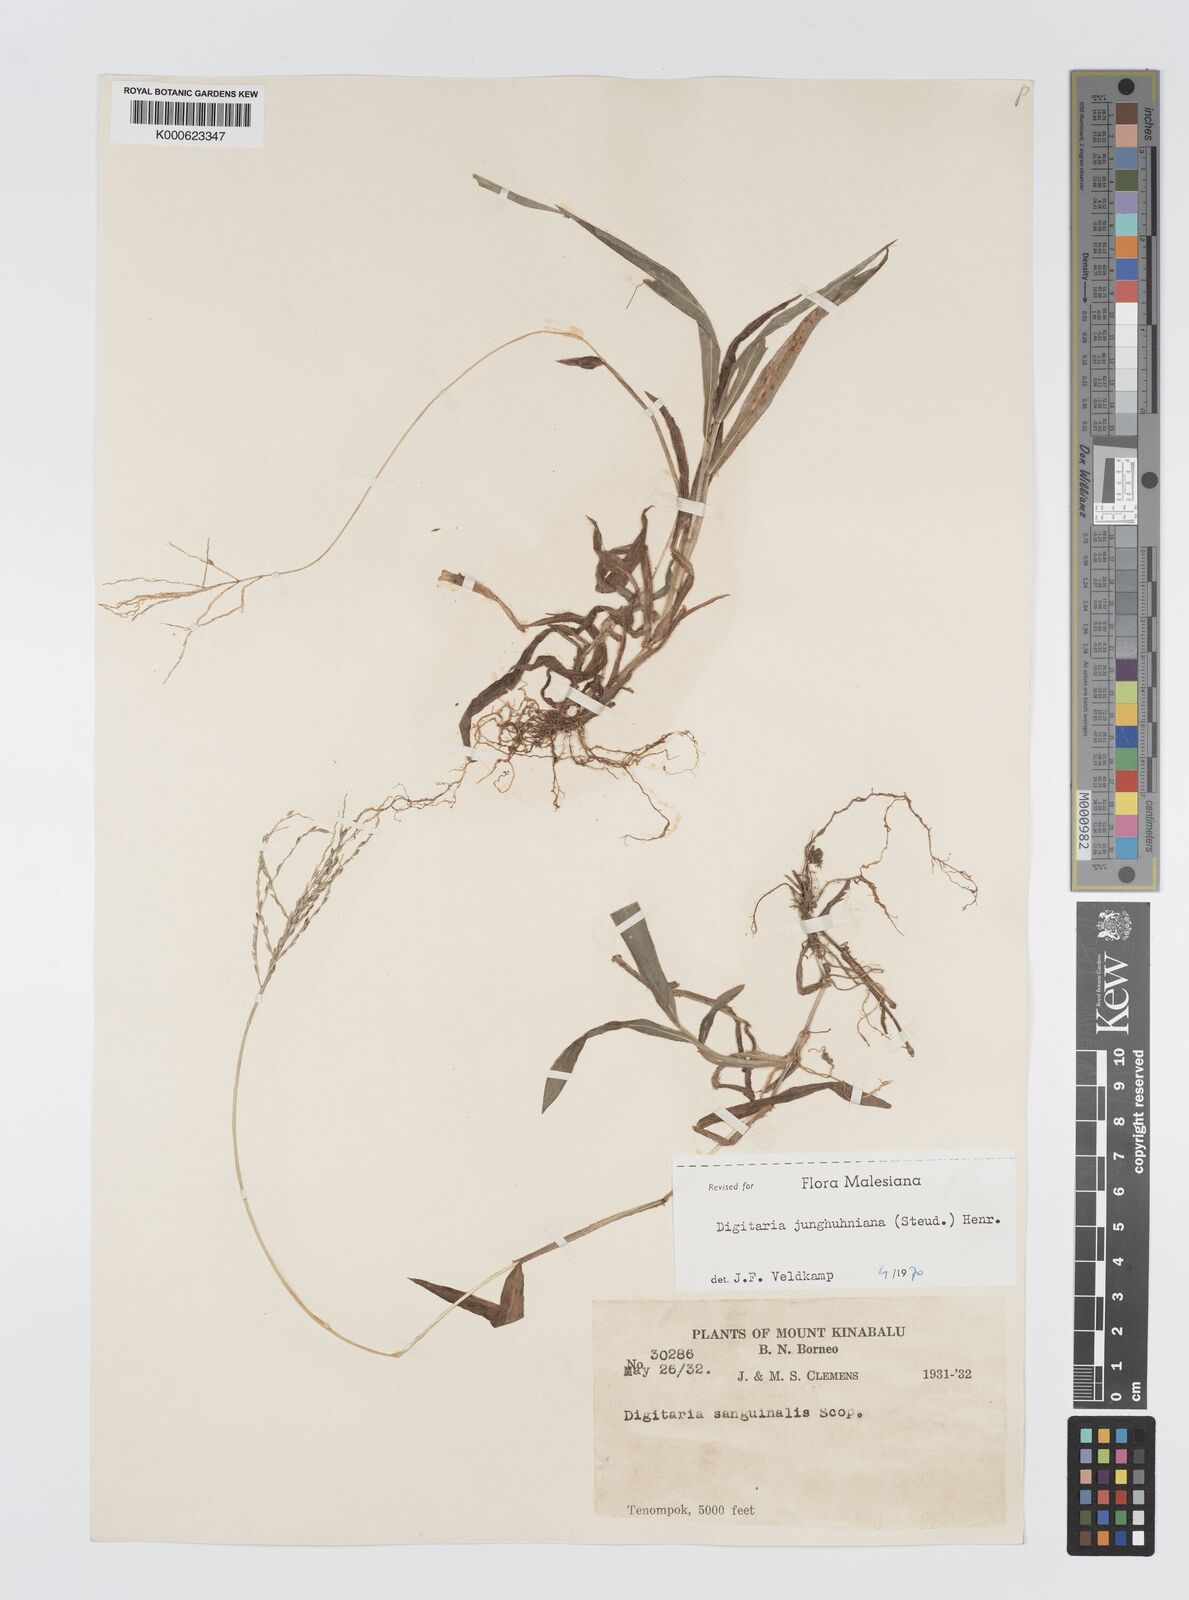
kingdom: Plantae
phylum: Tracheophyta
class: Liliopsida
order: Poales
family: Poaceae
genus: Digitaria
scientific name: Digitaria junghuhniana
